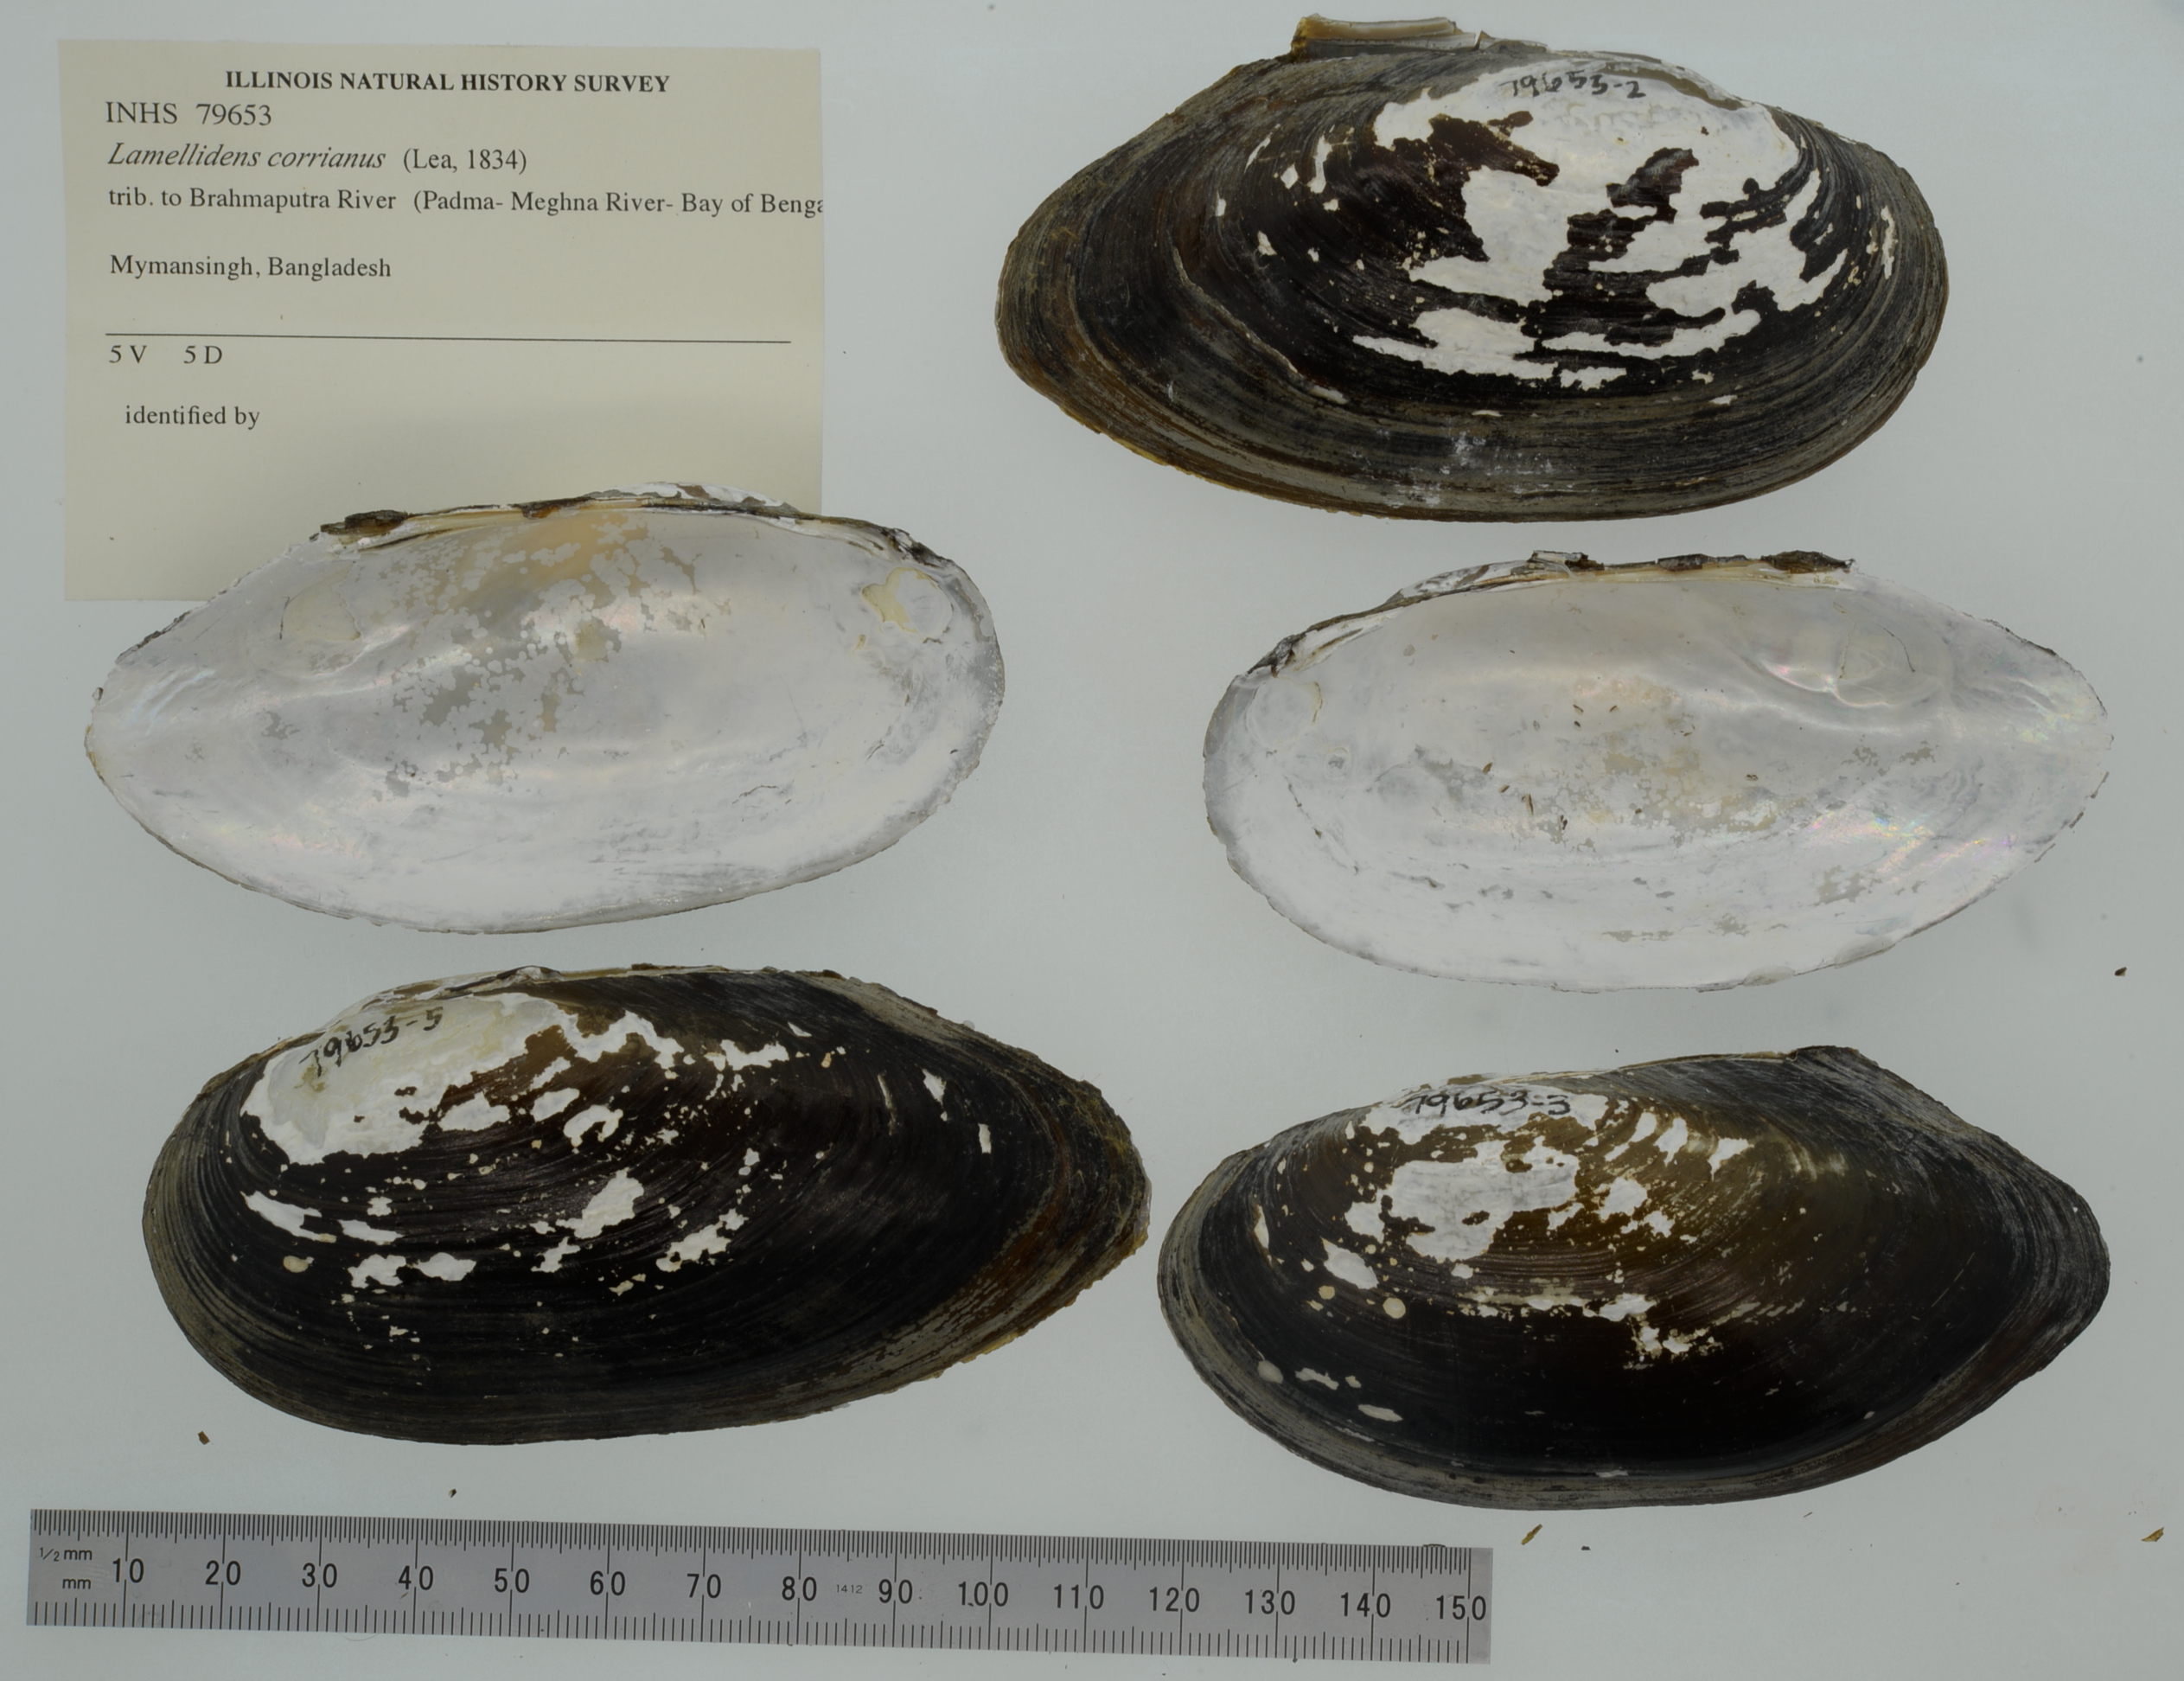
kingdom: Animalia
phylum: Mollusca
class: Bivalvia
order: Unionida
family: Unionidae
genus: Lamellidens
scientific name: Lamellidens corrianus
